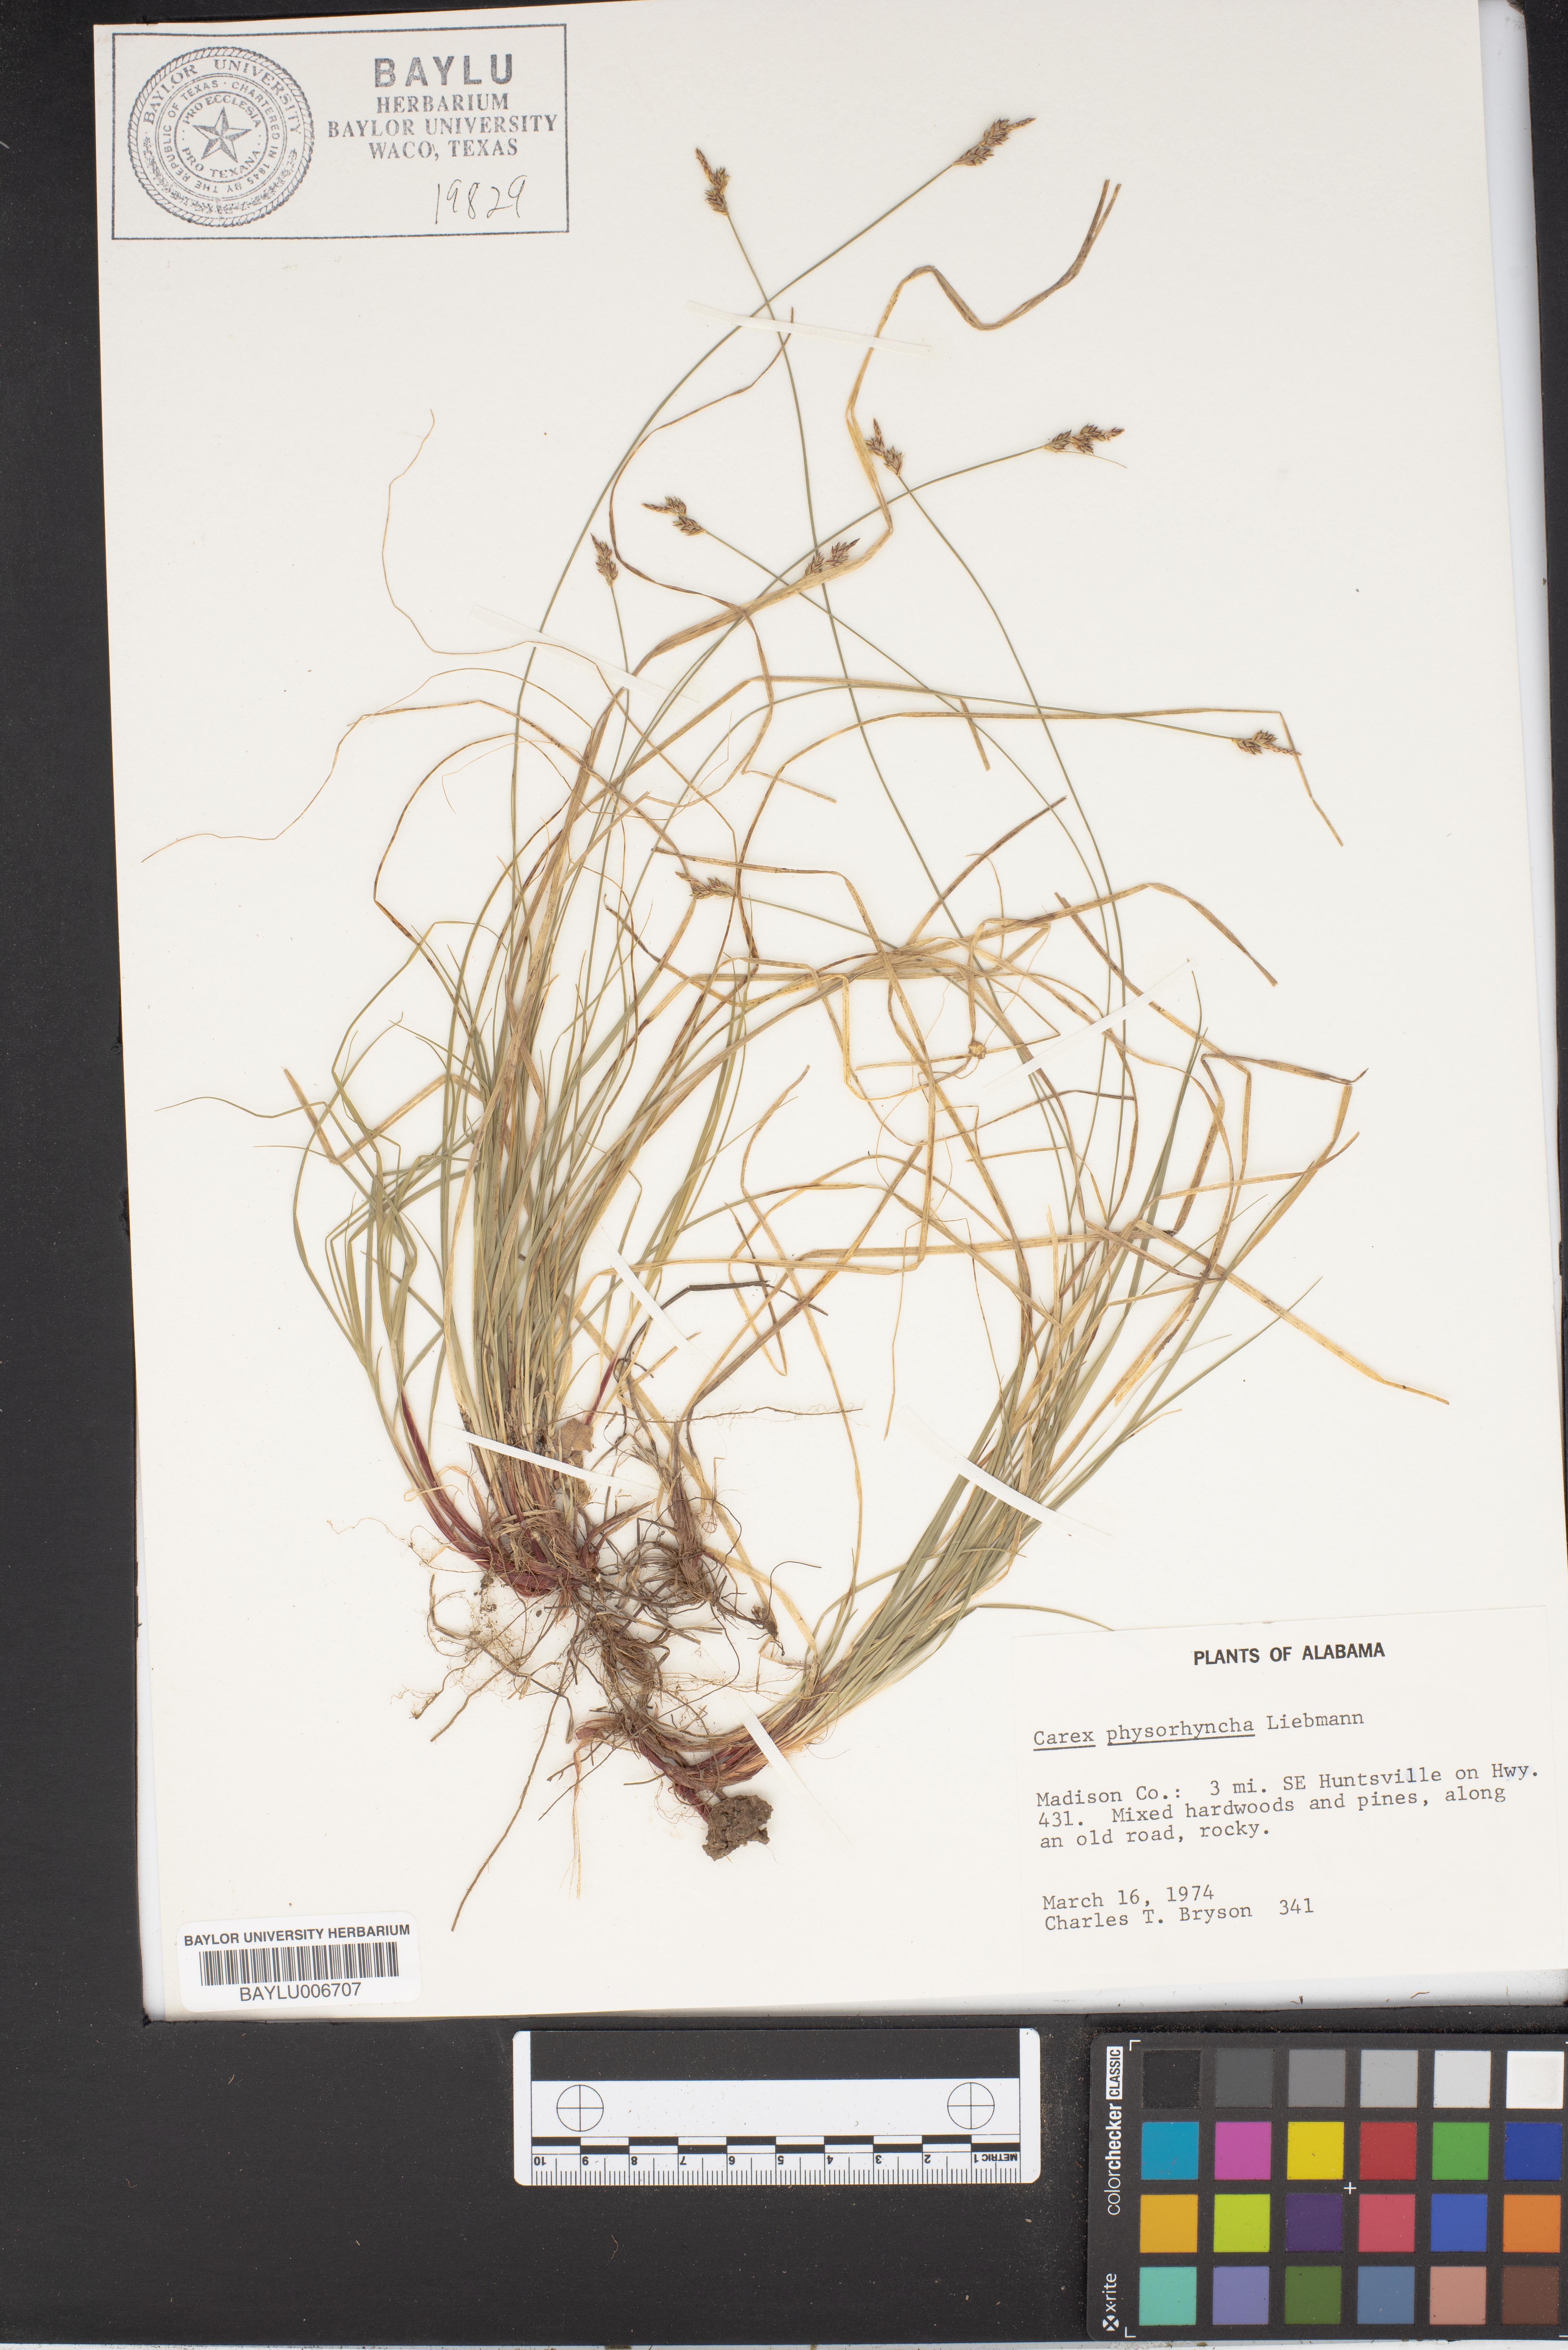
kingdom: Plantae
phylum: Tracheophyta
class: Liliopsida
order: Poales
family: Cyperaceae
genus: Carex
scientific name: Carex albicans
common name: Bellow-beaked sedge
